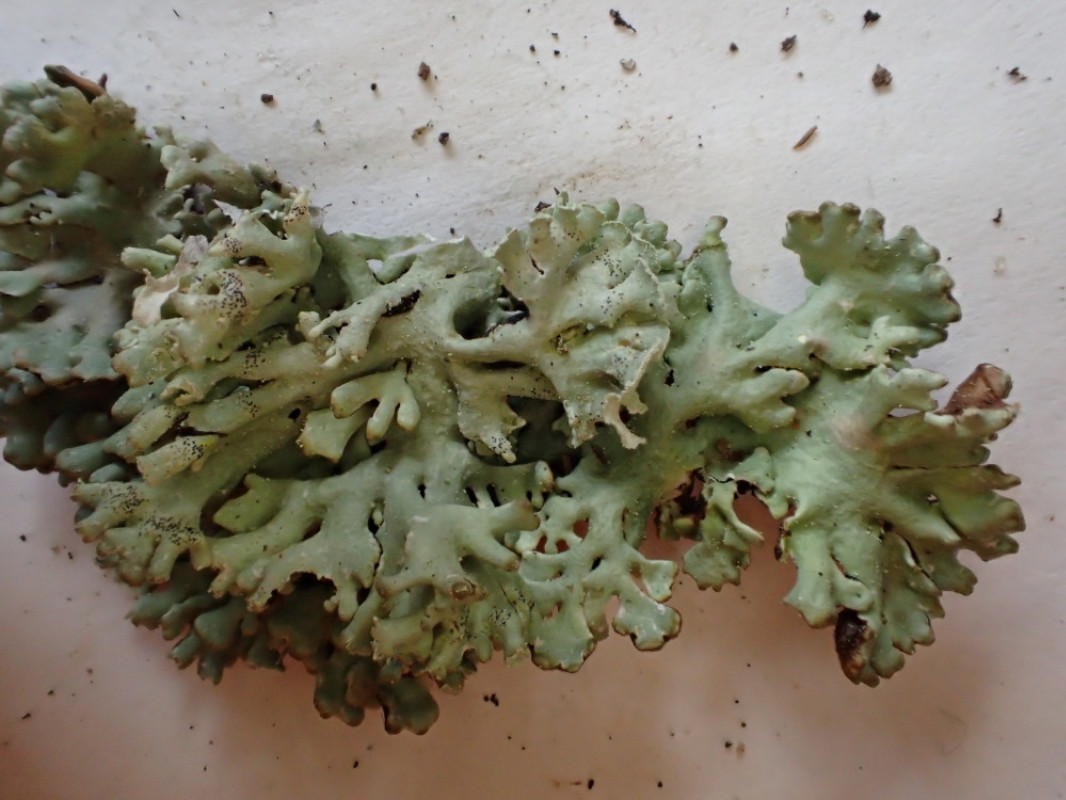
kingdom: Fungi
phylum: Ascomycota
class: Lecanoromycetes
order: Lecanorales
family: Parmeliaceae
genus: Hypogymnia
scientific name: Hypogymnia physodes
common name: almindelig kvistlav
